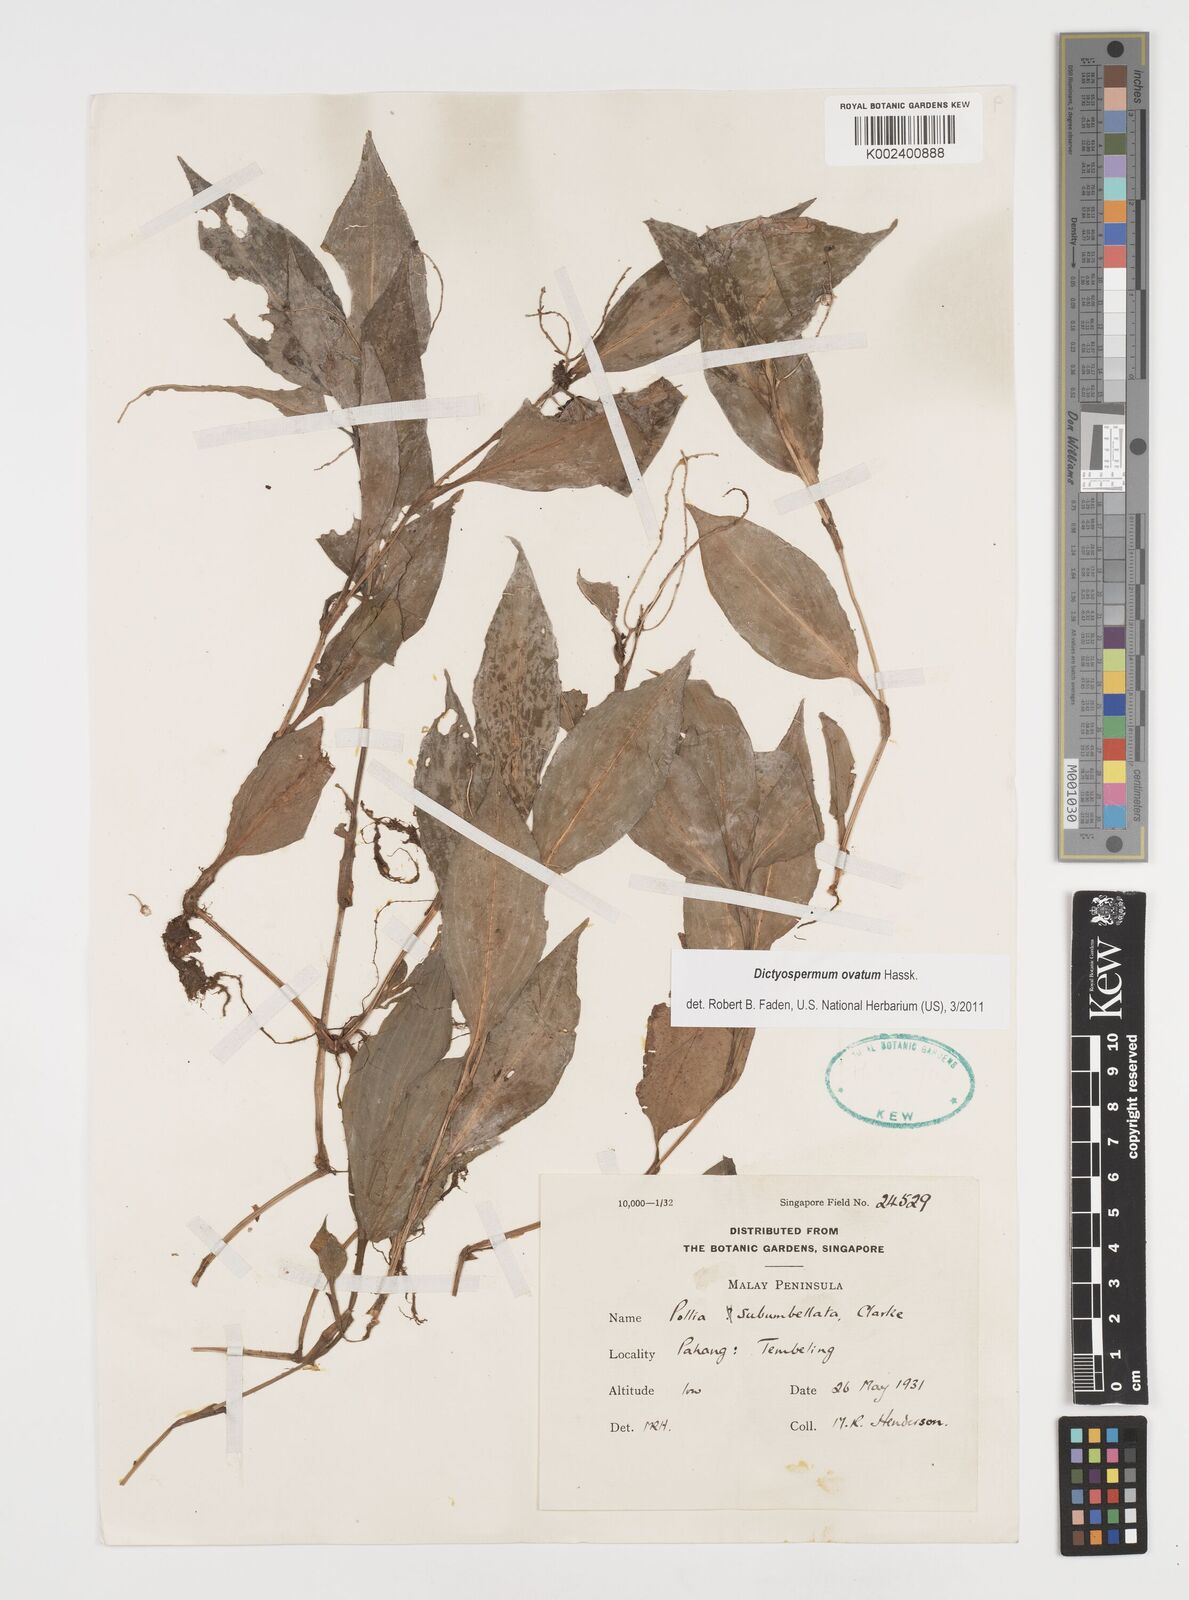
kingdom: Plantae
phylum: Tracheophyta
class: Liliopsida
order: Commelinales
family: Commelinaceae
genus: Dictyospermum
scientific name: Dictyospermum ovatum
